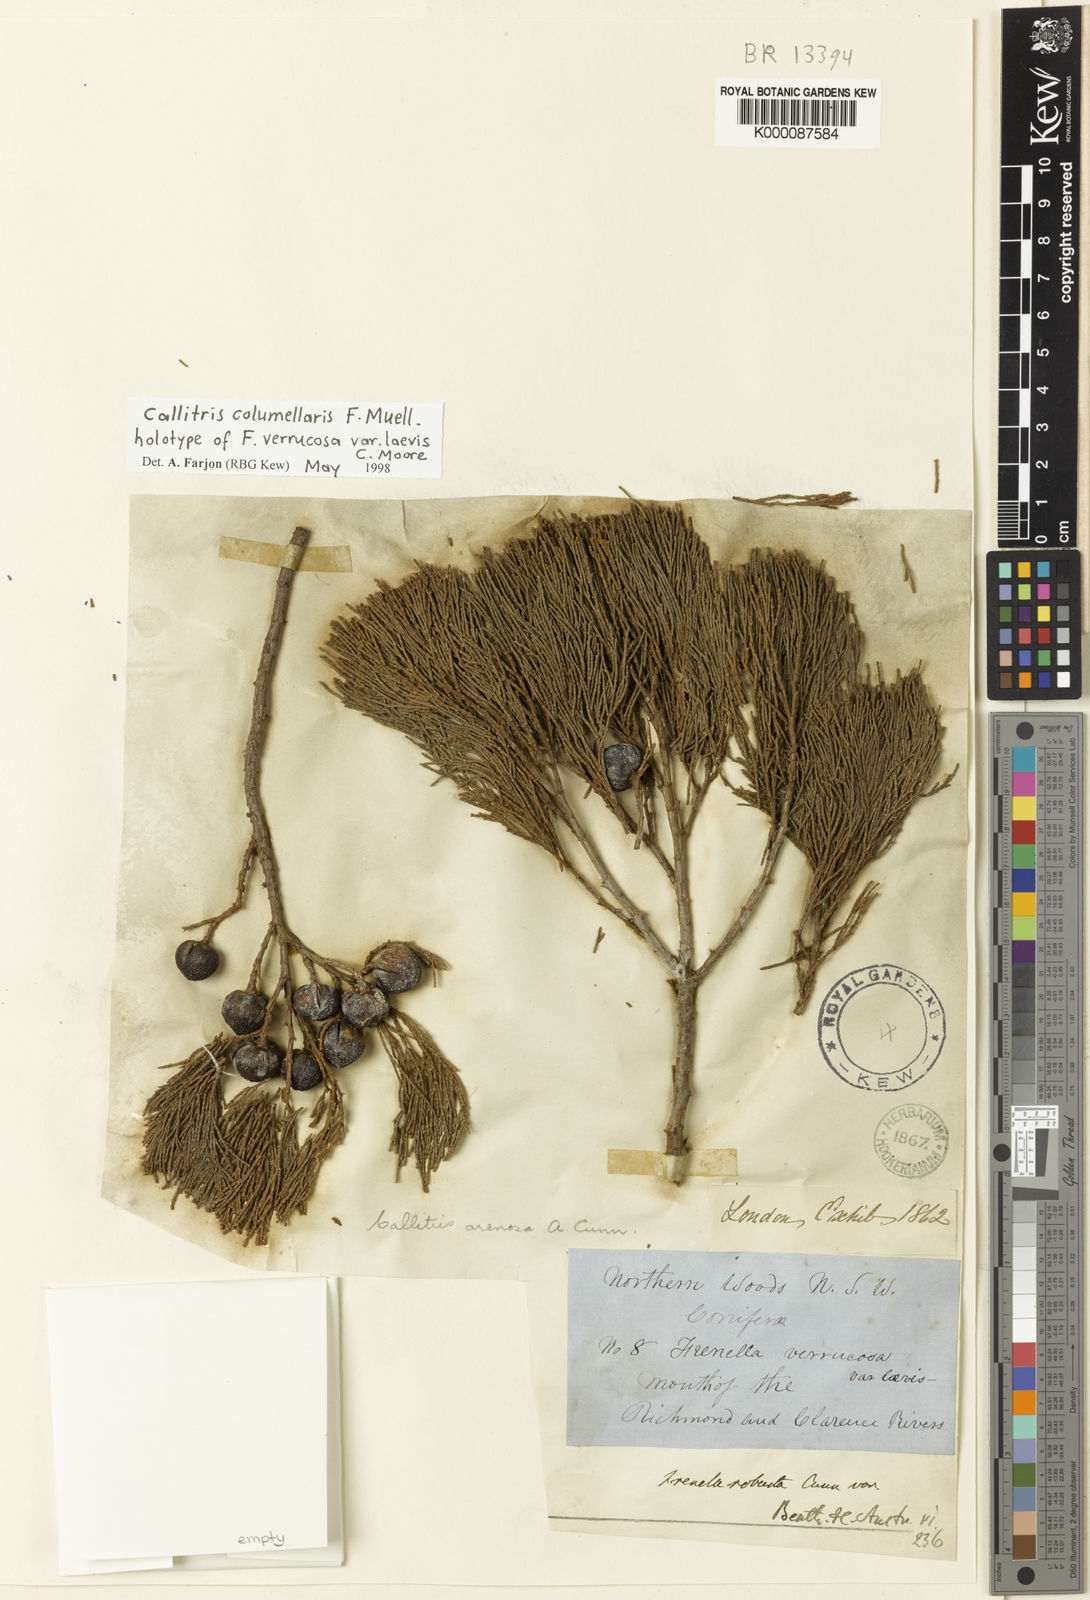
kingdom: Plantae
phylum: Tracheophyta
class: Pinopsida
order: Pinales
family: Cupressaceae
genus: Callitris
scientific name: Callitris columellaris
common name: White cypress-pine
